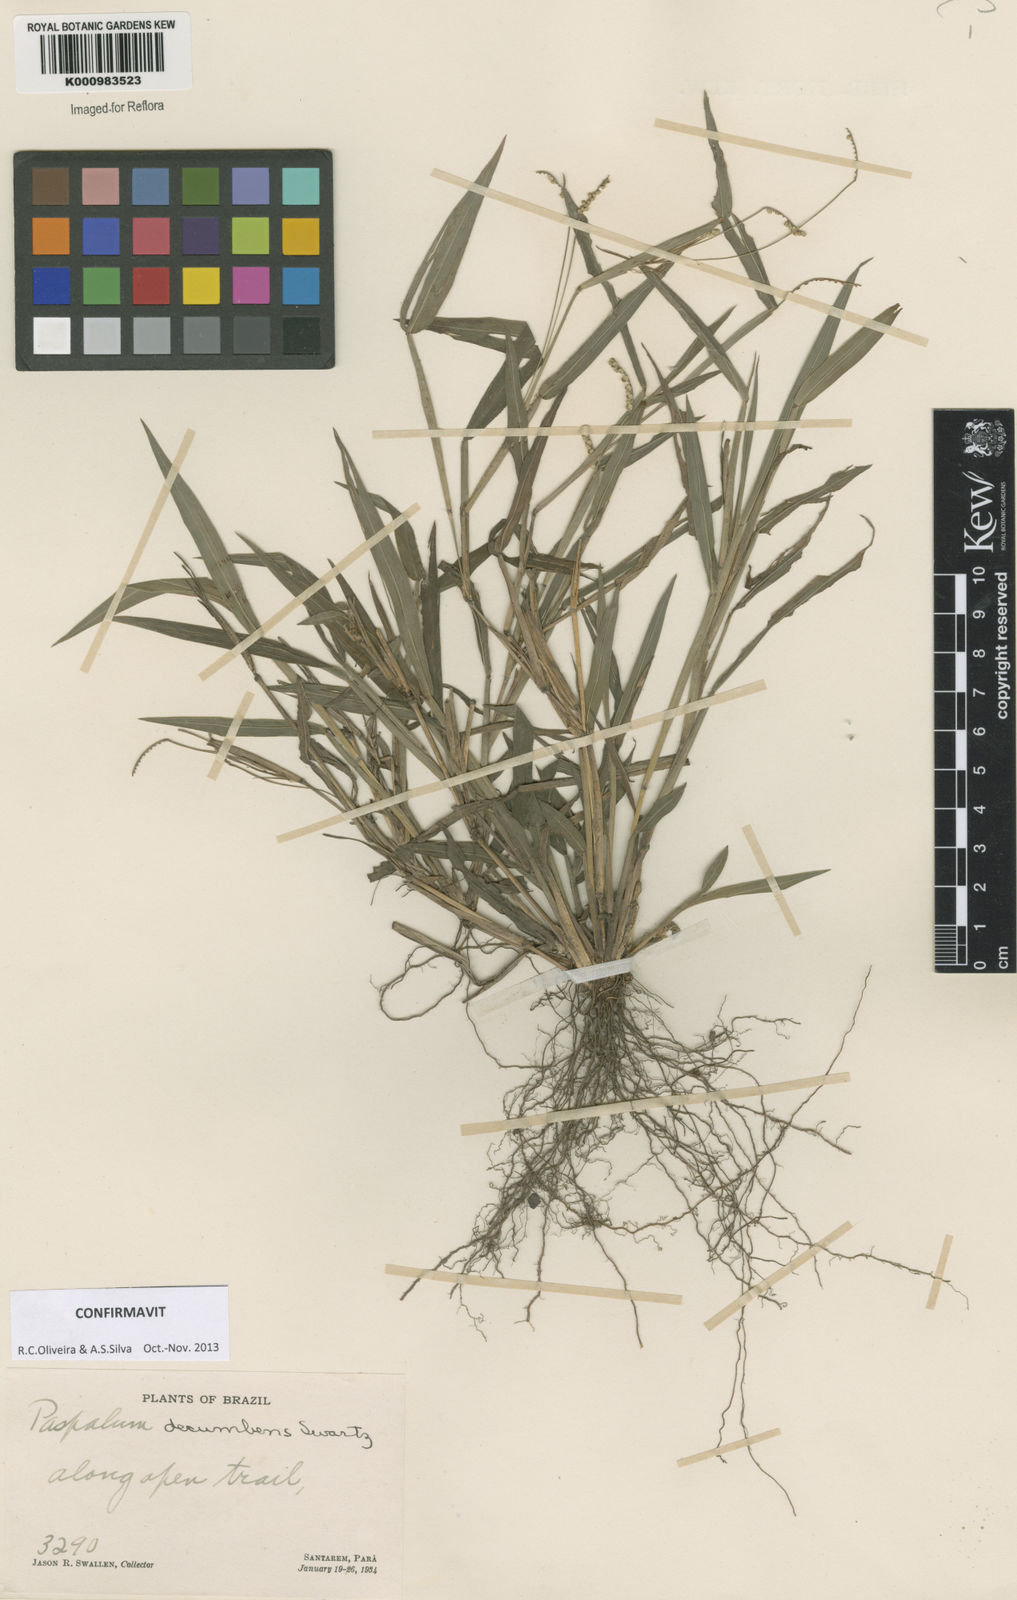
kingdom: Plantae
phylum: Tracheophyta
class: Liliopsida
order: Poales
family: Poaceae
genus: Paspalum
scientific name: Paspalum decumbens
